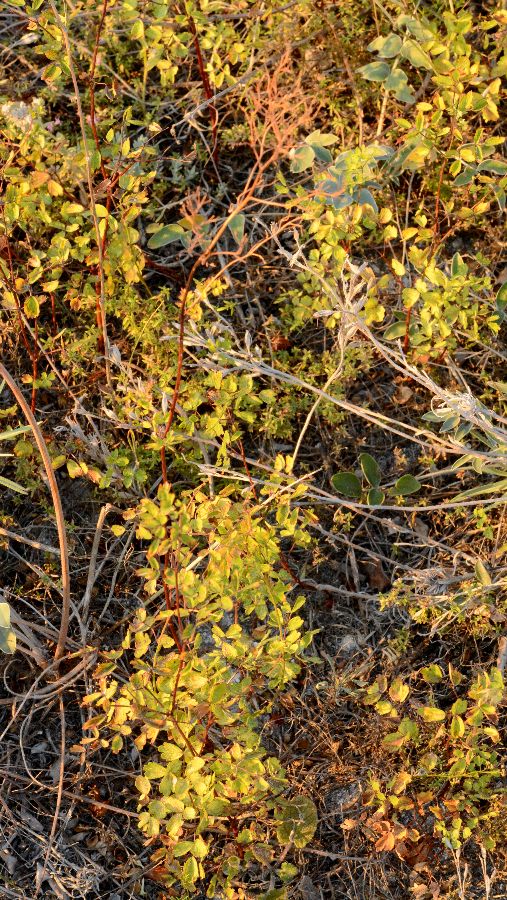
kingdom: Plantae
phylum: Tracheophyta
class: Magnoliopsida
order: Ranunculales
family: Ranunculaceae
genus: Thalictrum
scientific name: Thalictrum minus
